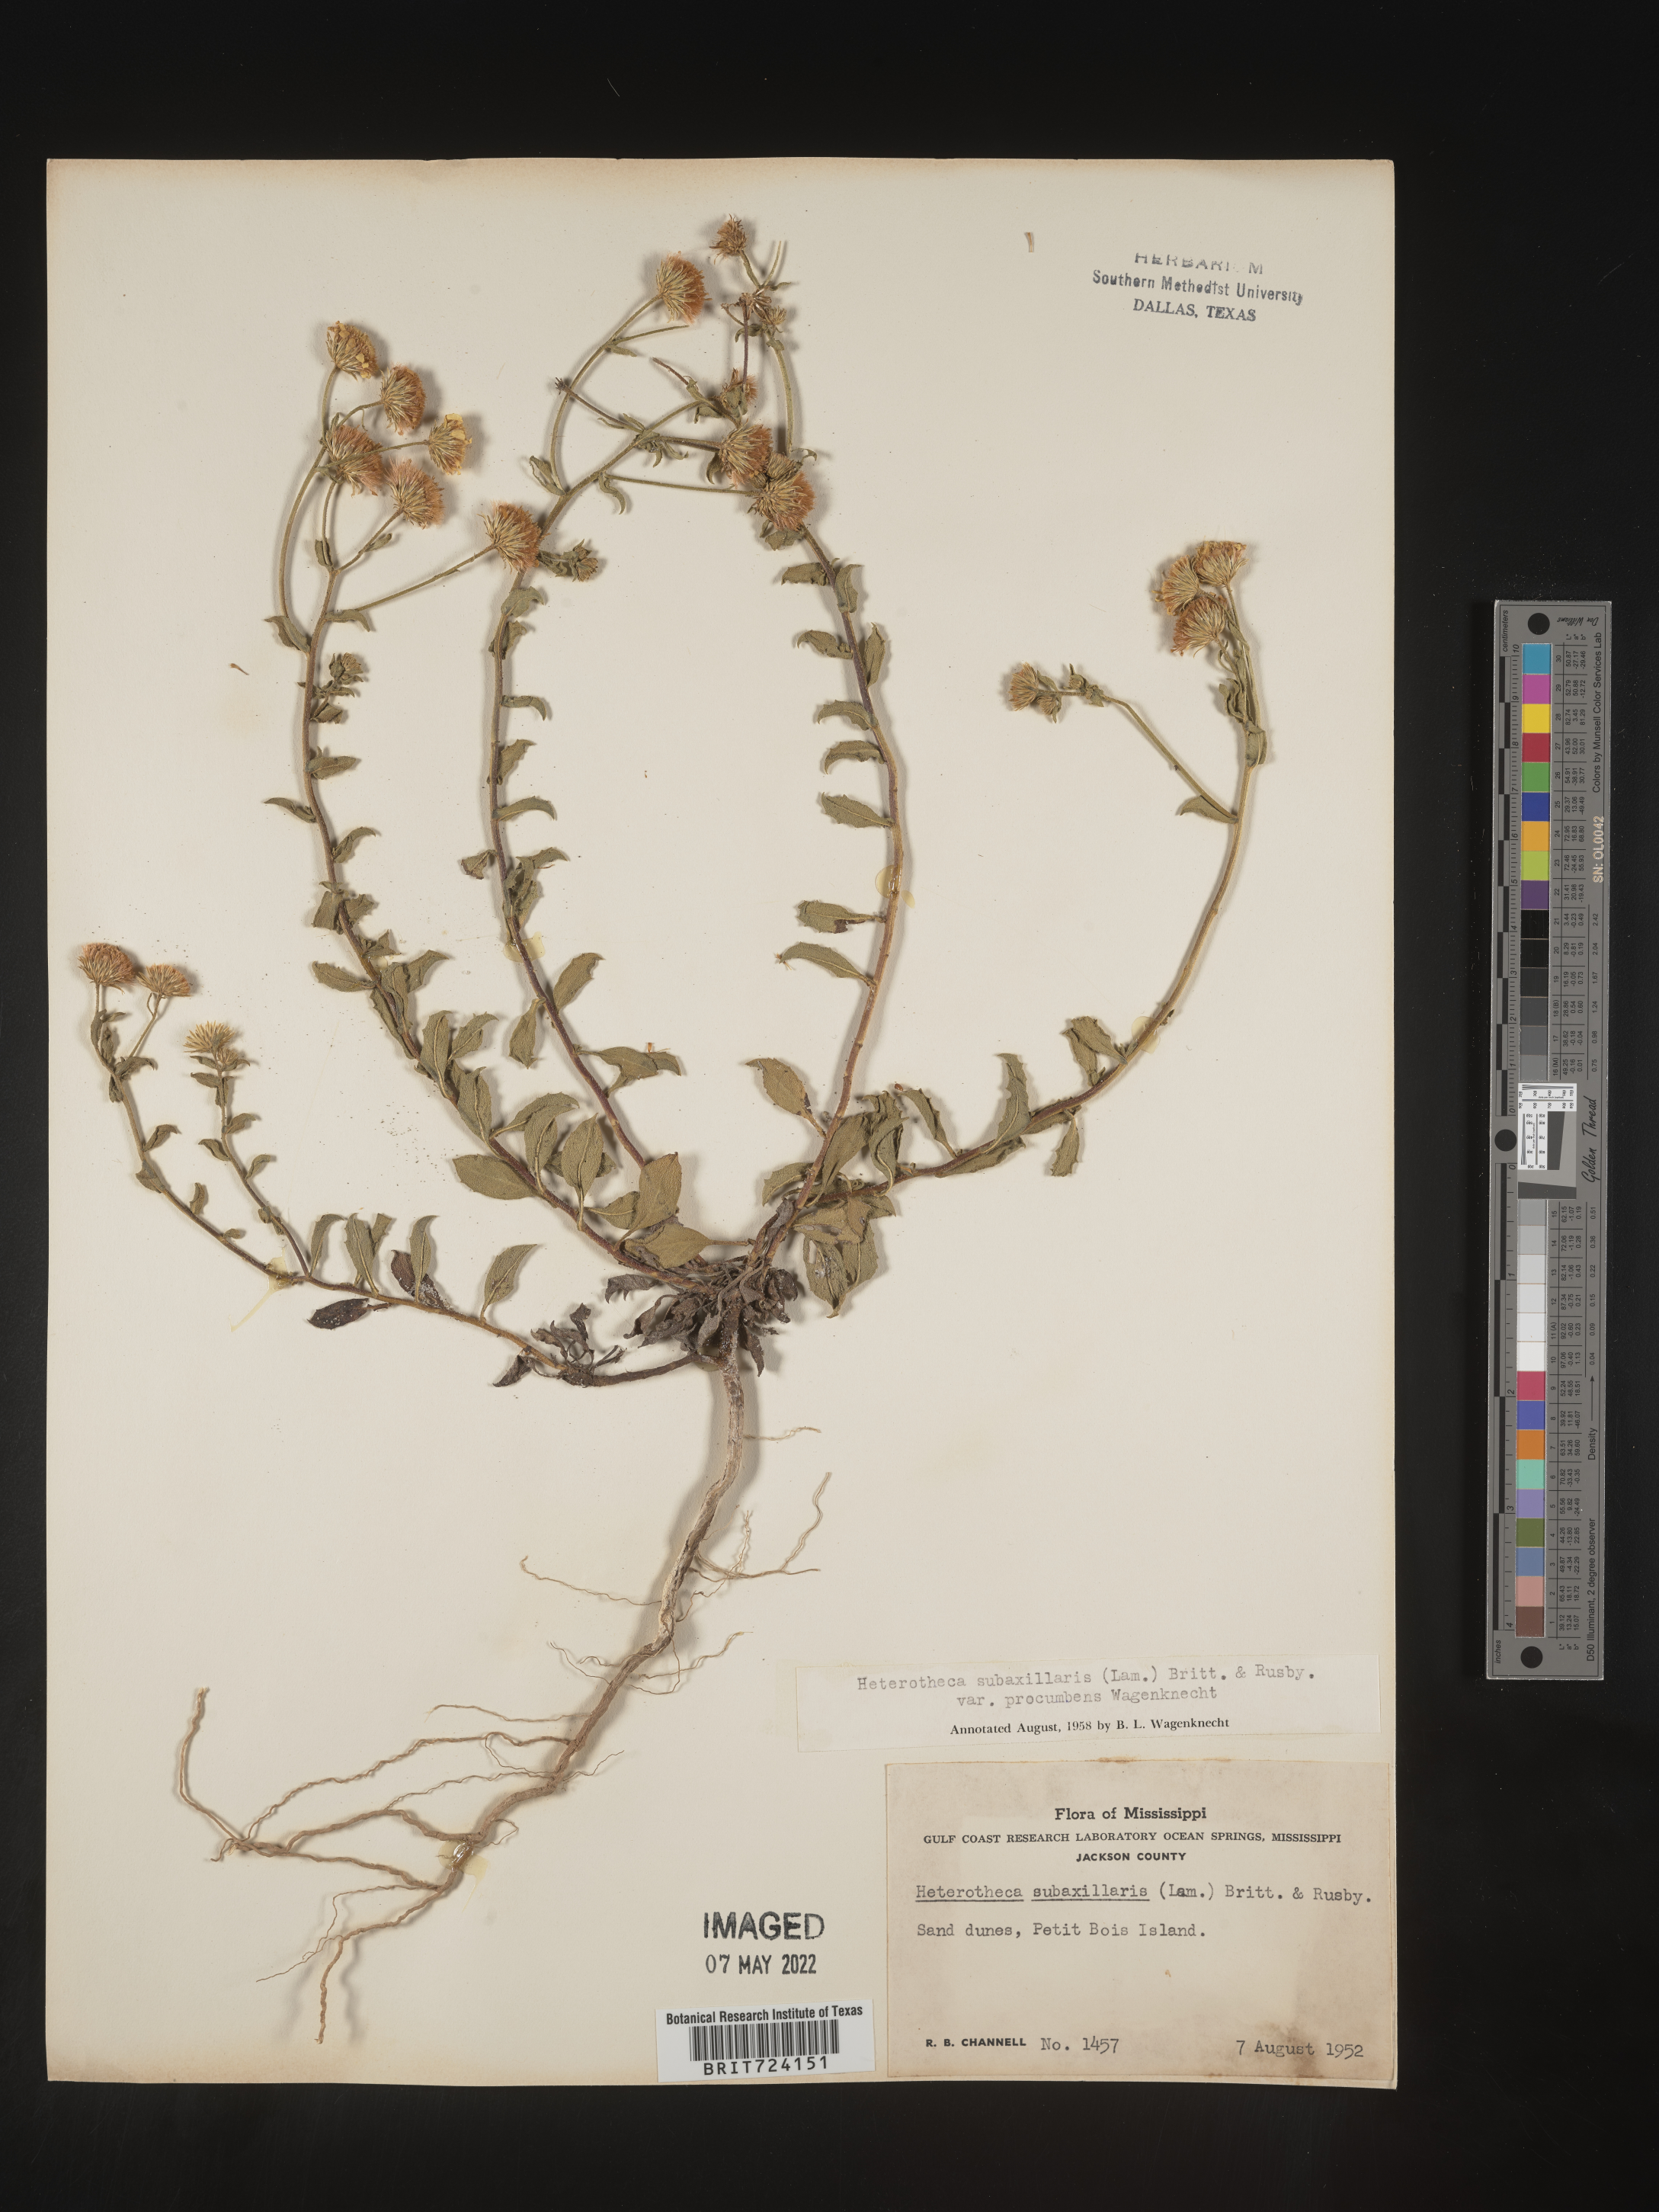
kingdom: Plantae
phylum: Tracheophyta
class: Magnoliopsida
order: Asterales
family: Asteraceae
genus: Heterotheca
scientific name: Heterotheca subaxillaris
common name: Camphorweed
